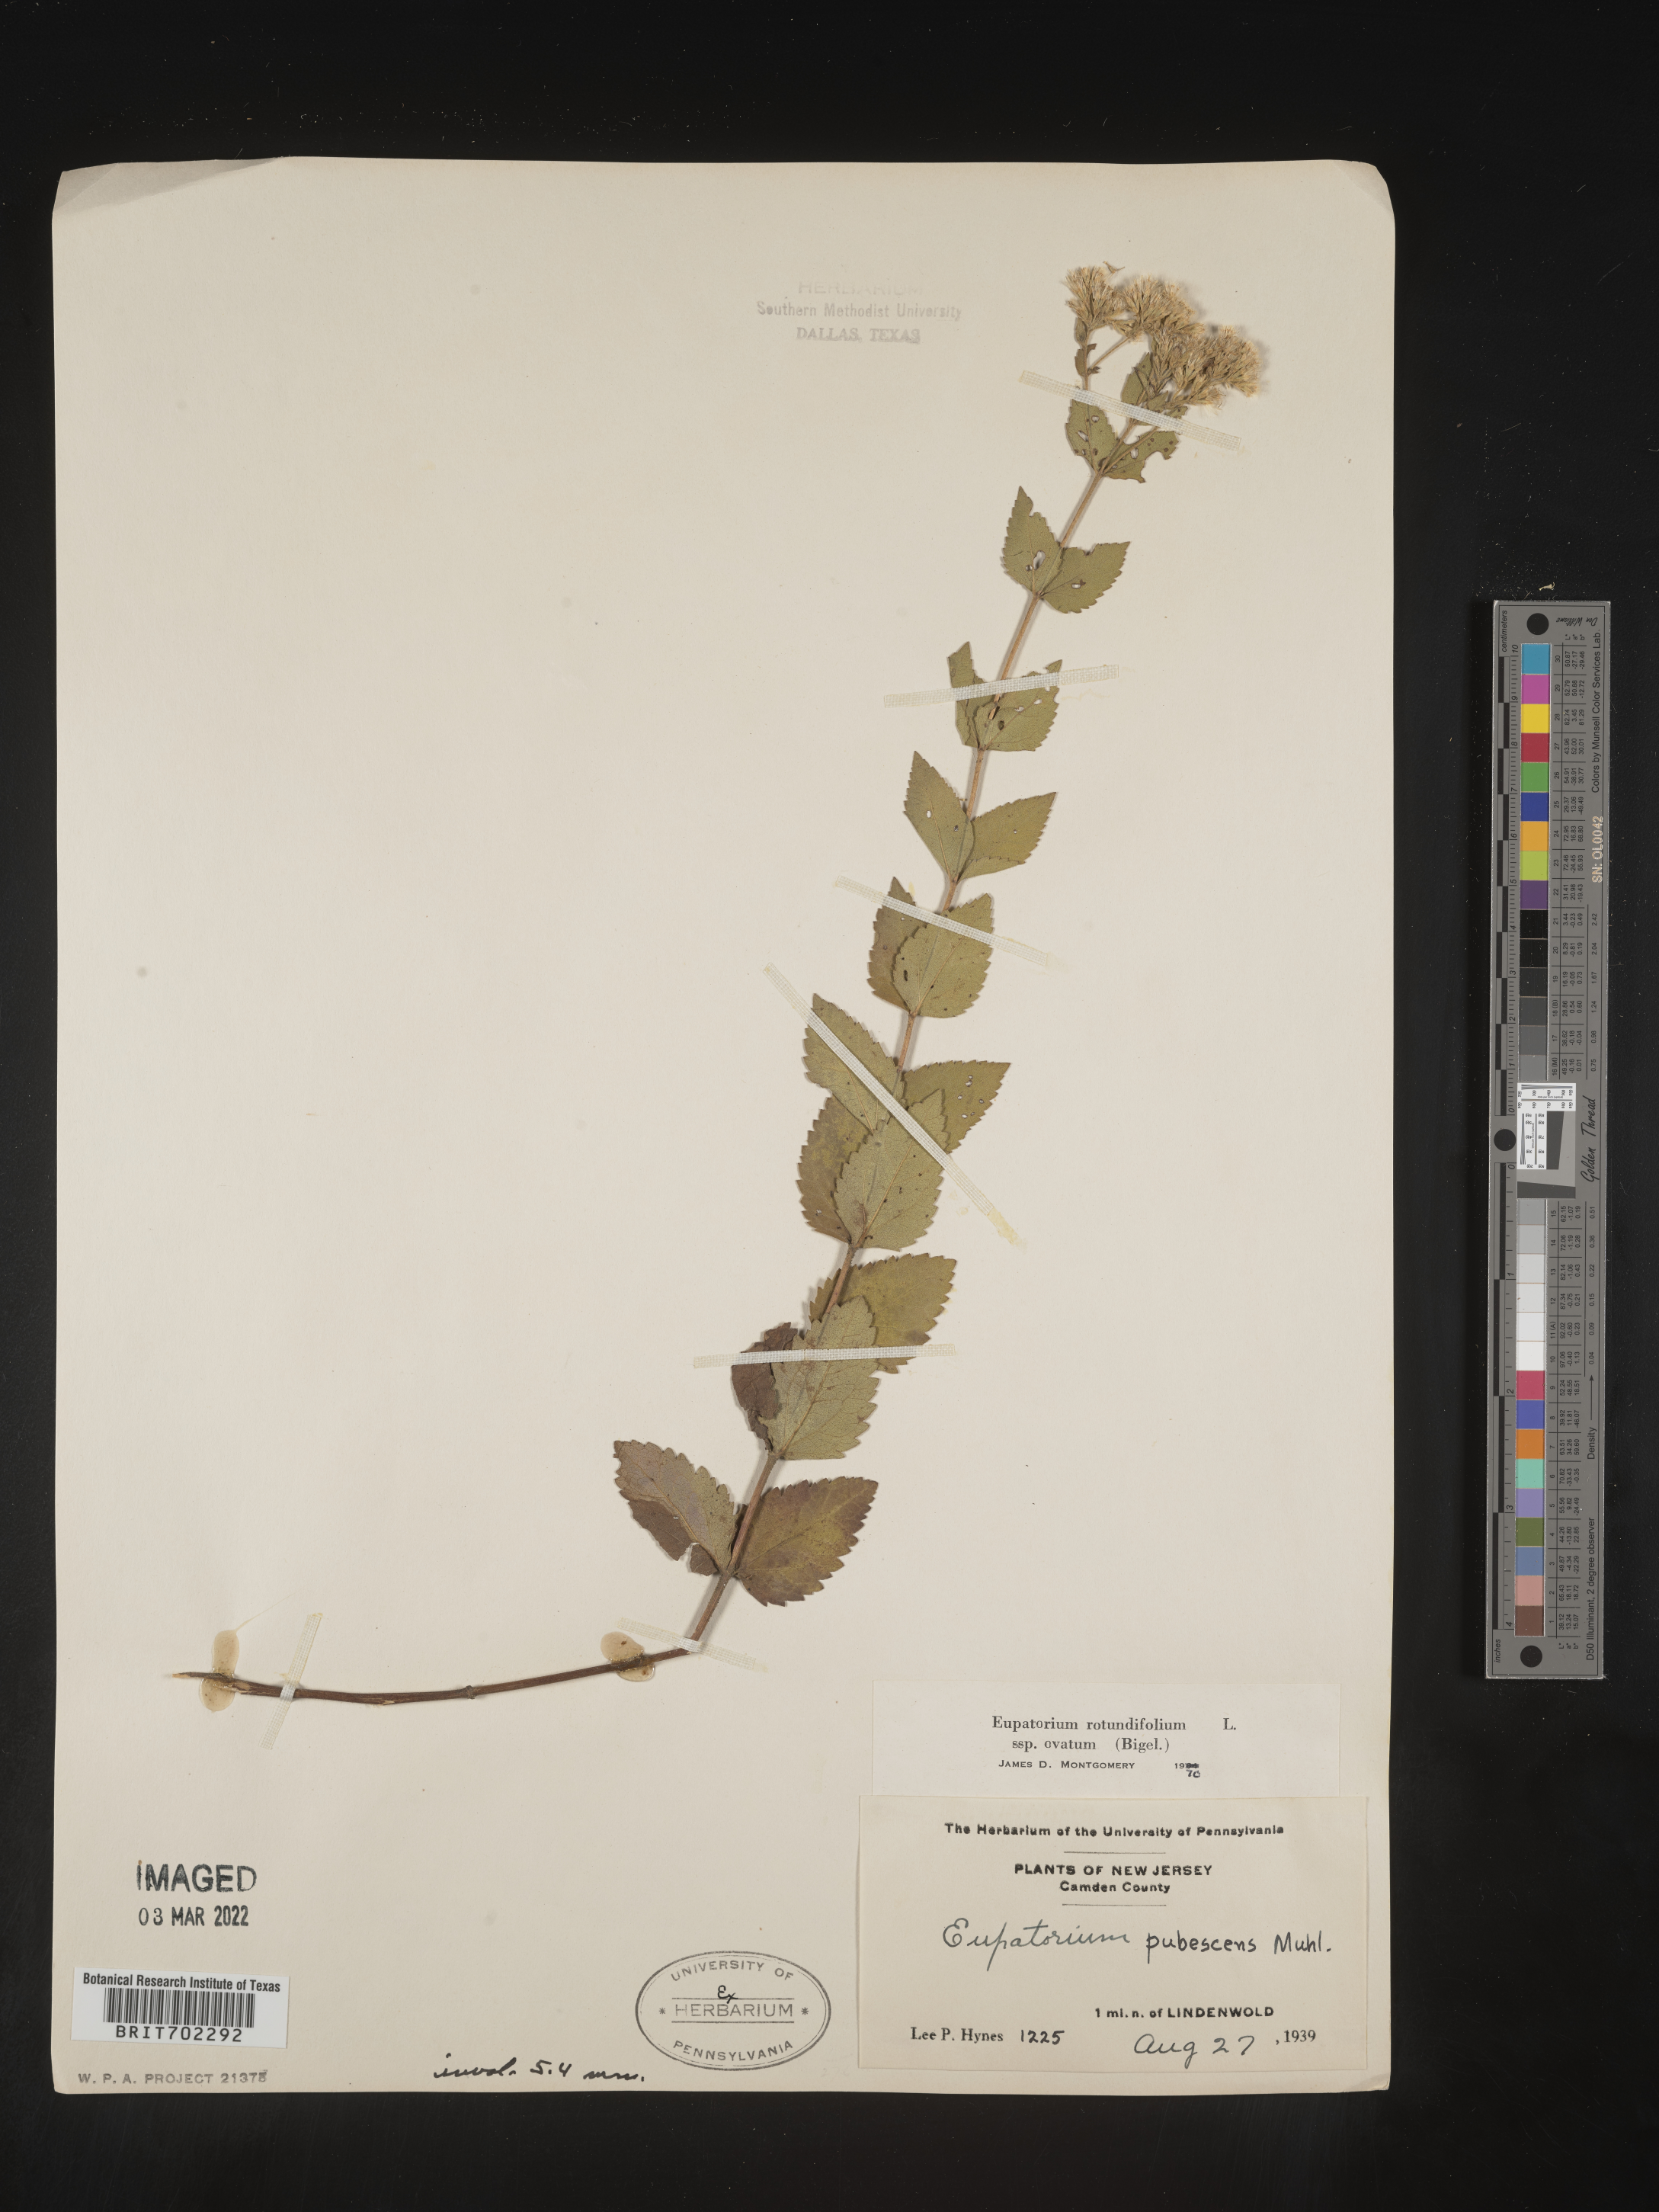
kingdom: Plantae
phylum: Tracheophyta
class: Magnoliopsida
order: Asterales
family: Asteraceae
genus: Eupatorium
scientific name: Eupatorium rotundifolium
